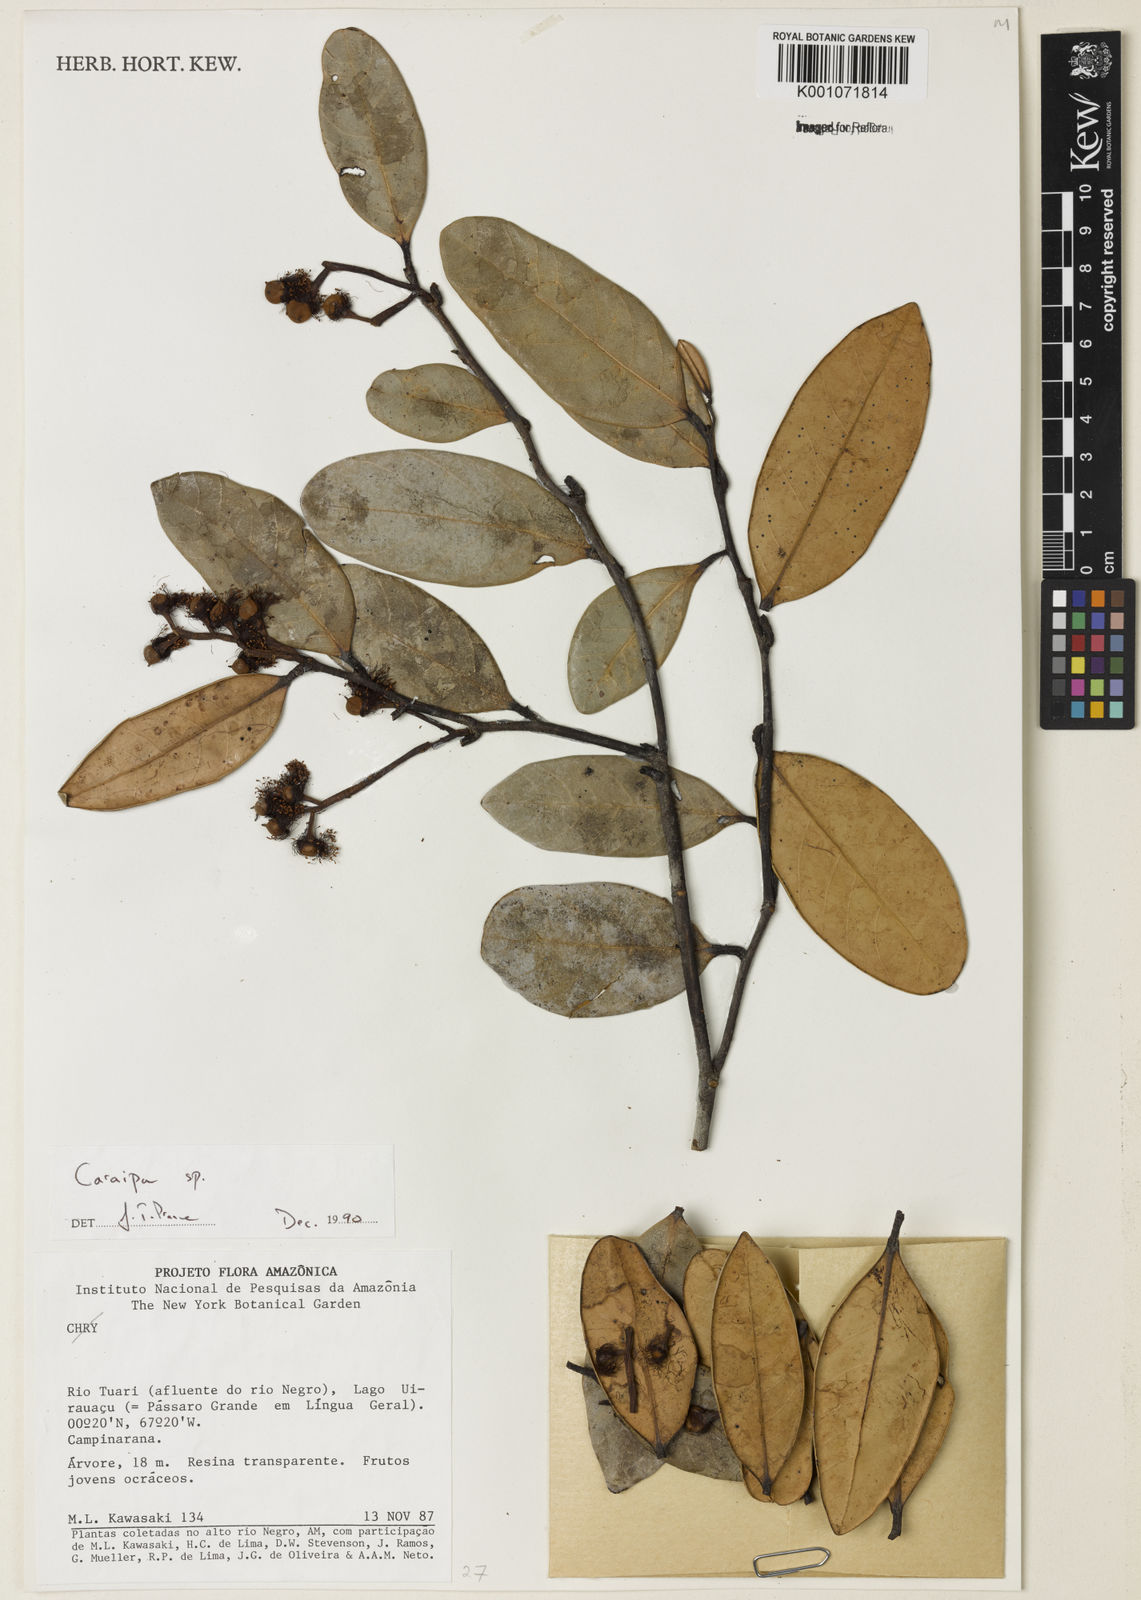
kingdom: Plantae
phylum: Tracheophyta
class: Magnoliopsida
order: Malpighiales
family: Calophyllaceae
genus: Caraipa
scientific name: Caraipa
